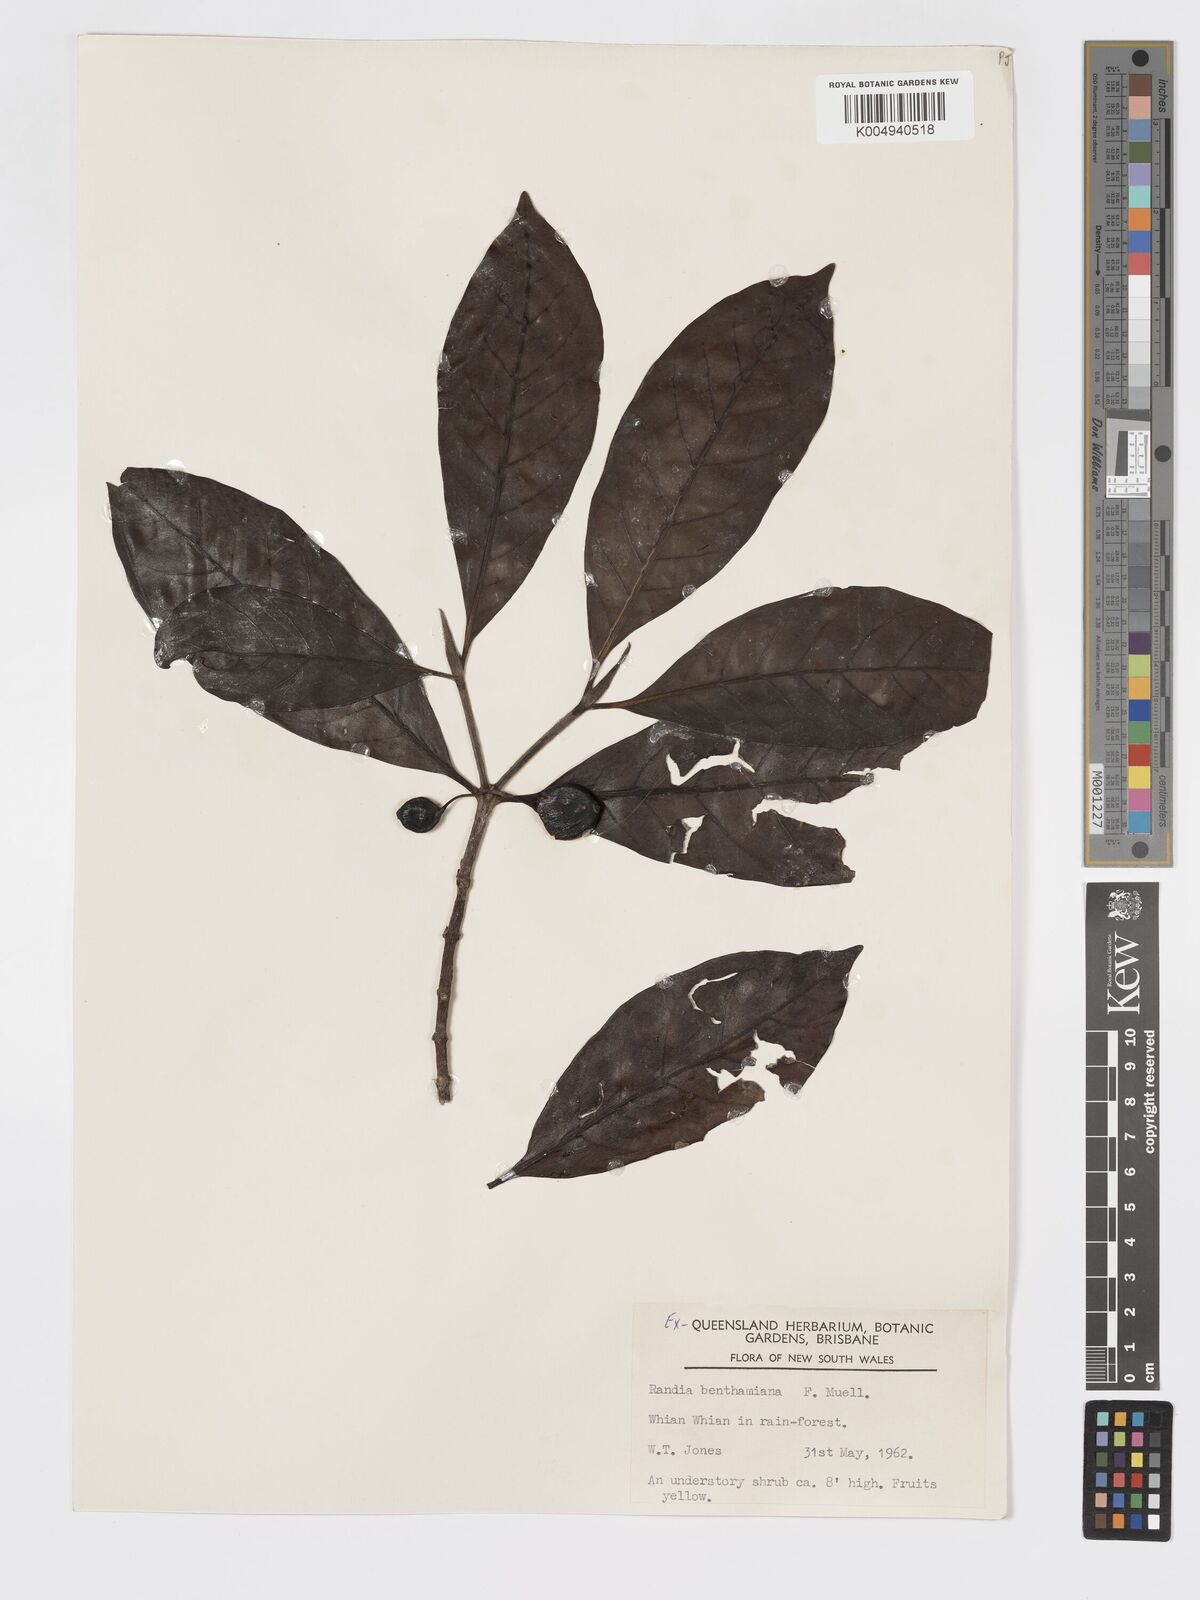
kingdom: Plantae
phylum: Tracheophyta
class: Magnoliopsida
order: Gentianales
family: Rubiaceae
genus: Atractocarpus
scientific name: Atractocarpus benthamianus
